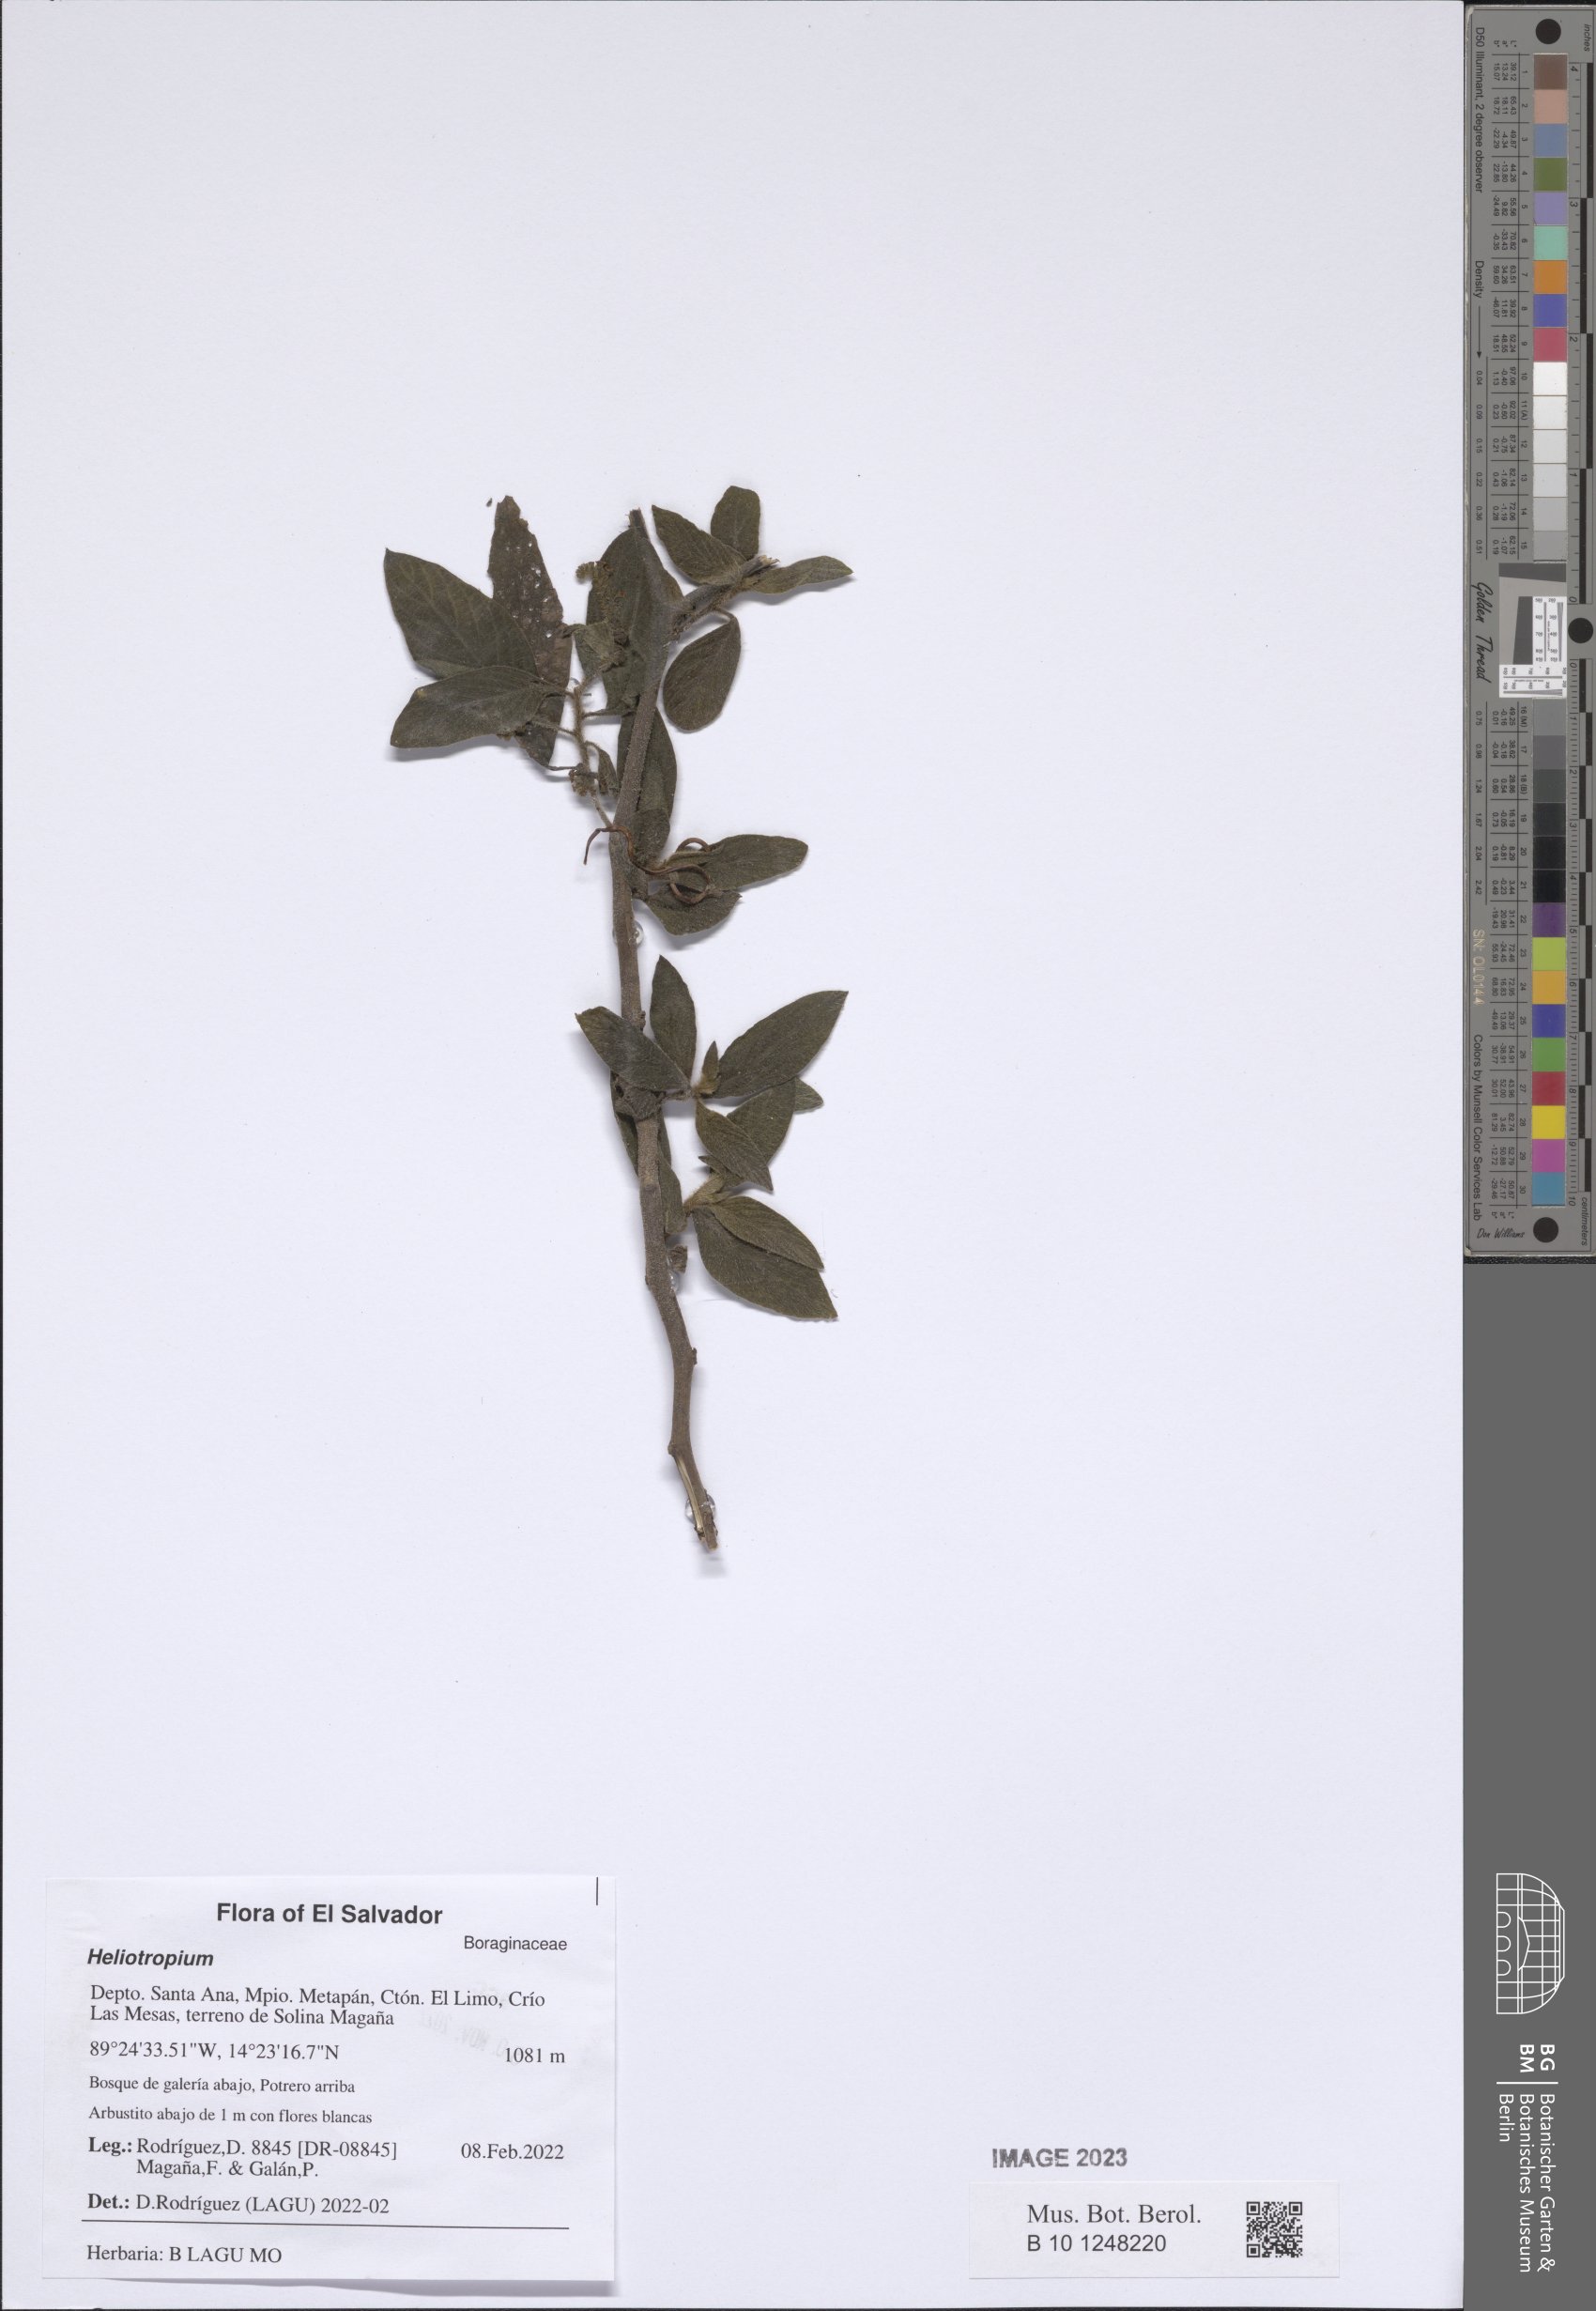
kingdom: Plantae
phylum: Tracheophyta
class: Magnoliopsida
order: Boraginales
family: Heliotropiaceae
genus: Heliotropium
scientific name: Heliotropium
